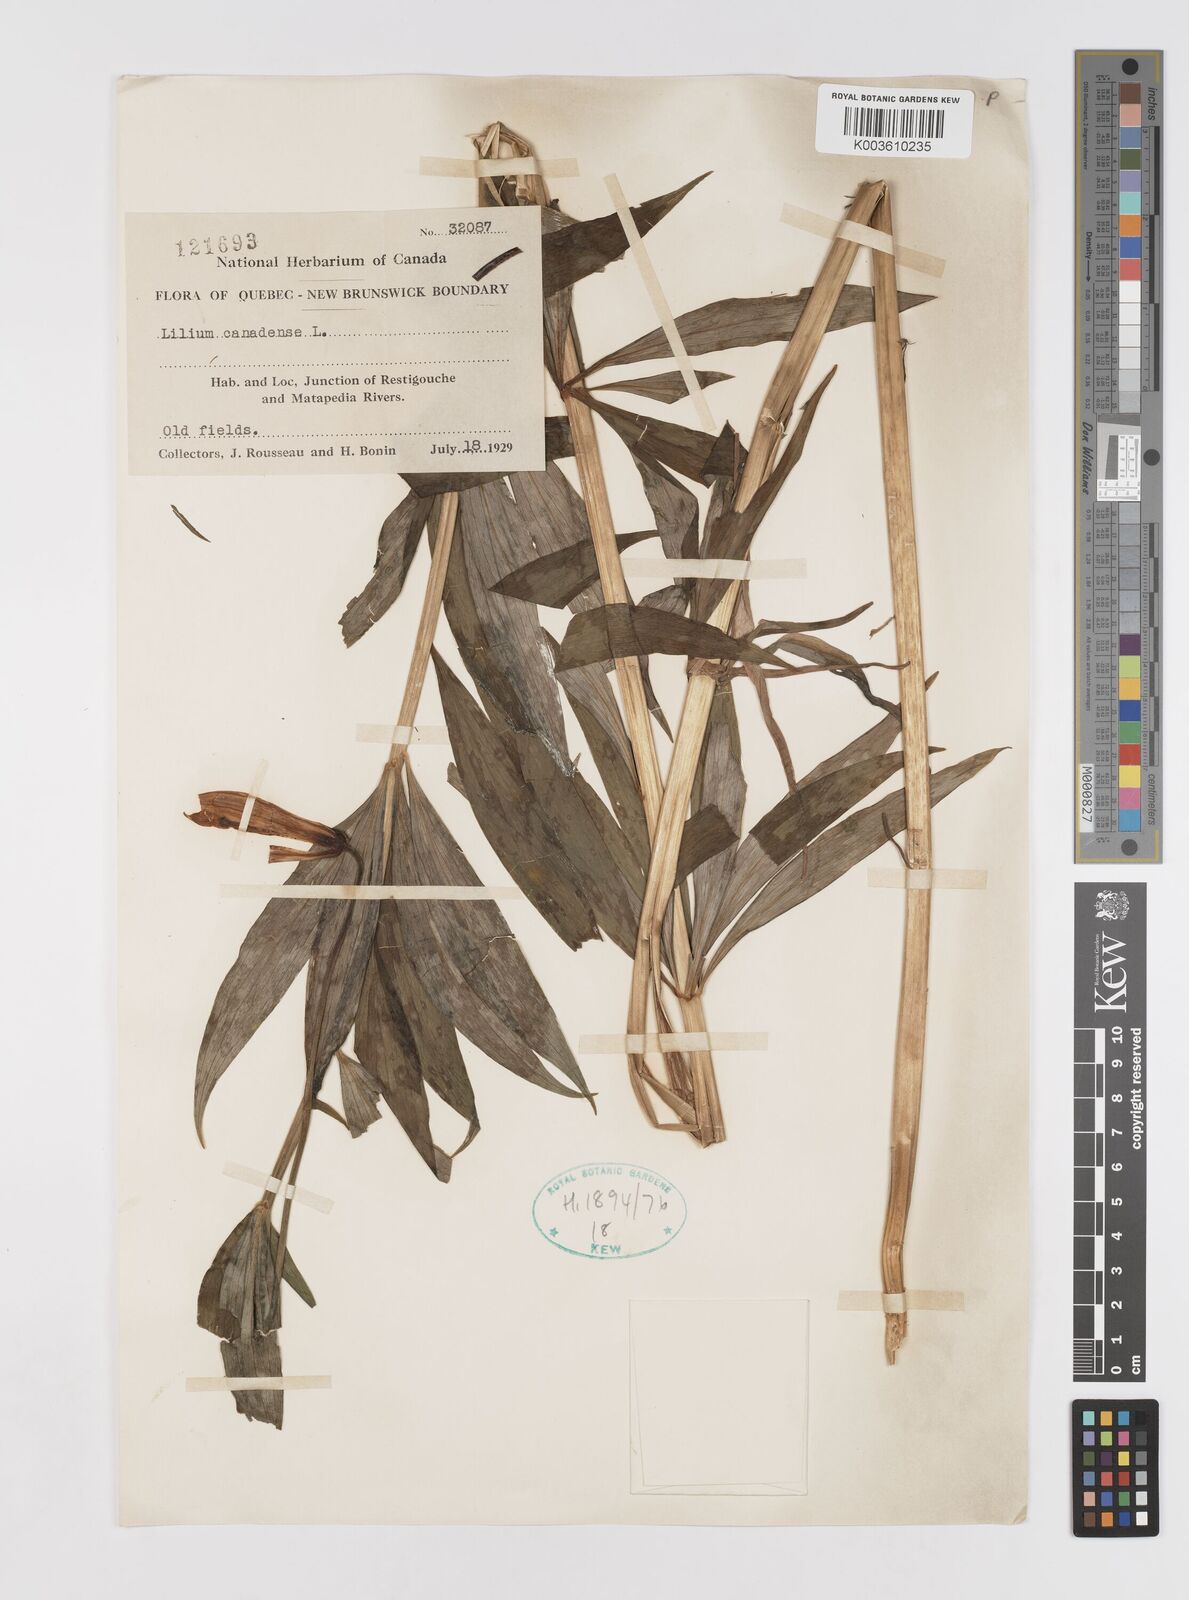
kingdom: Plantae
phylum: Tracheophyta
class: Liliopsida
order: Liliales
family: Liliaceae
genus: Lilium
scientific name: Lilium canadense
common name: Canada lily
